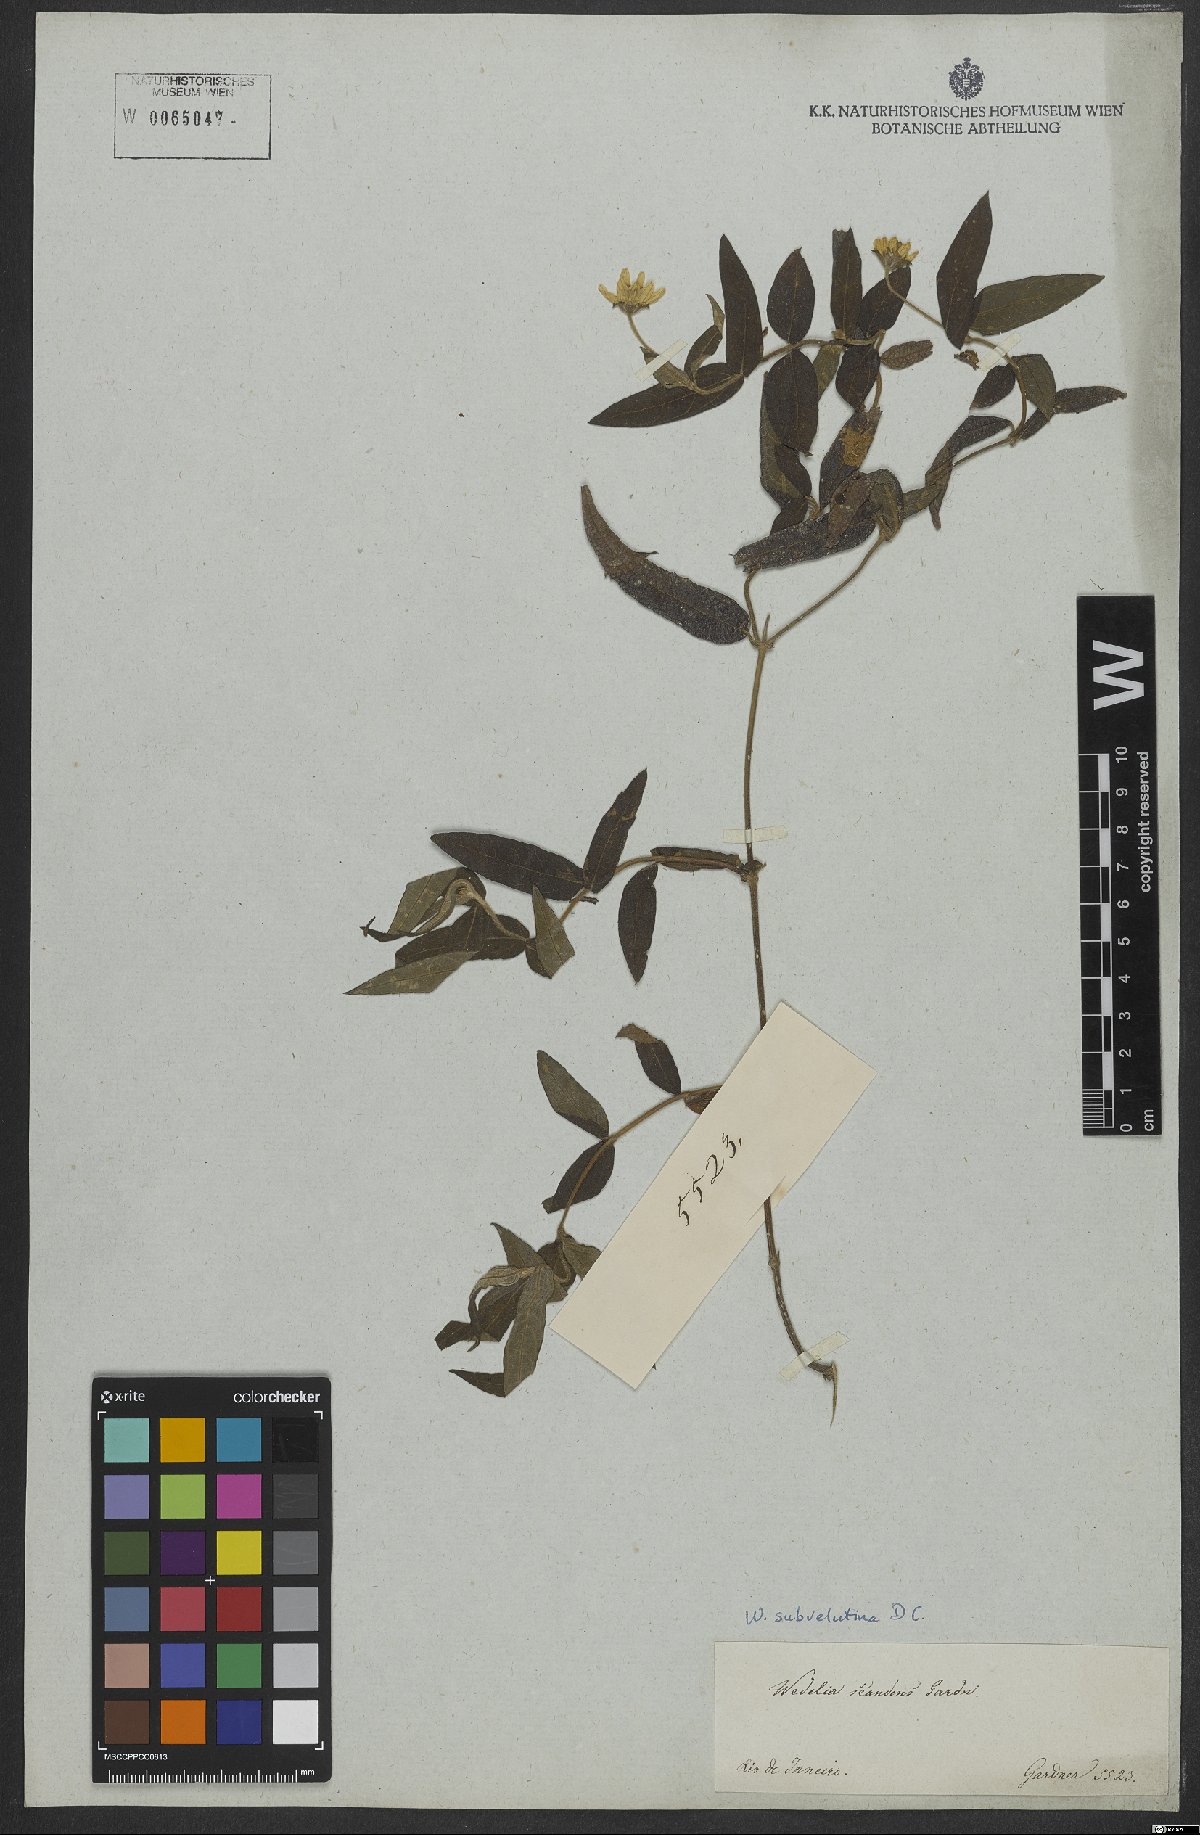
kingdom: Plantae
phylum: Tracheophyta
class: Magnoliopsida
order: Asterales
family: Asteraceae
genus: Wedelia
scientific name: Wedelia subvelutina
